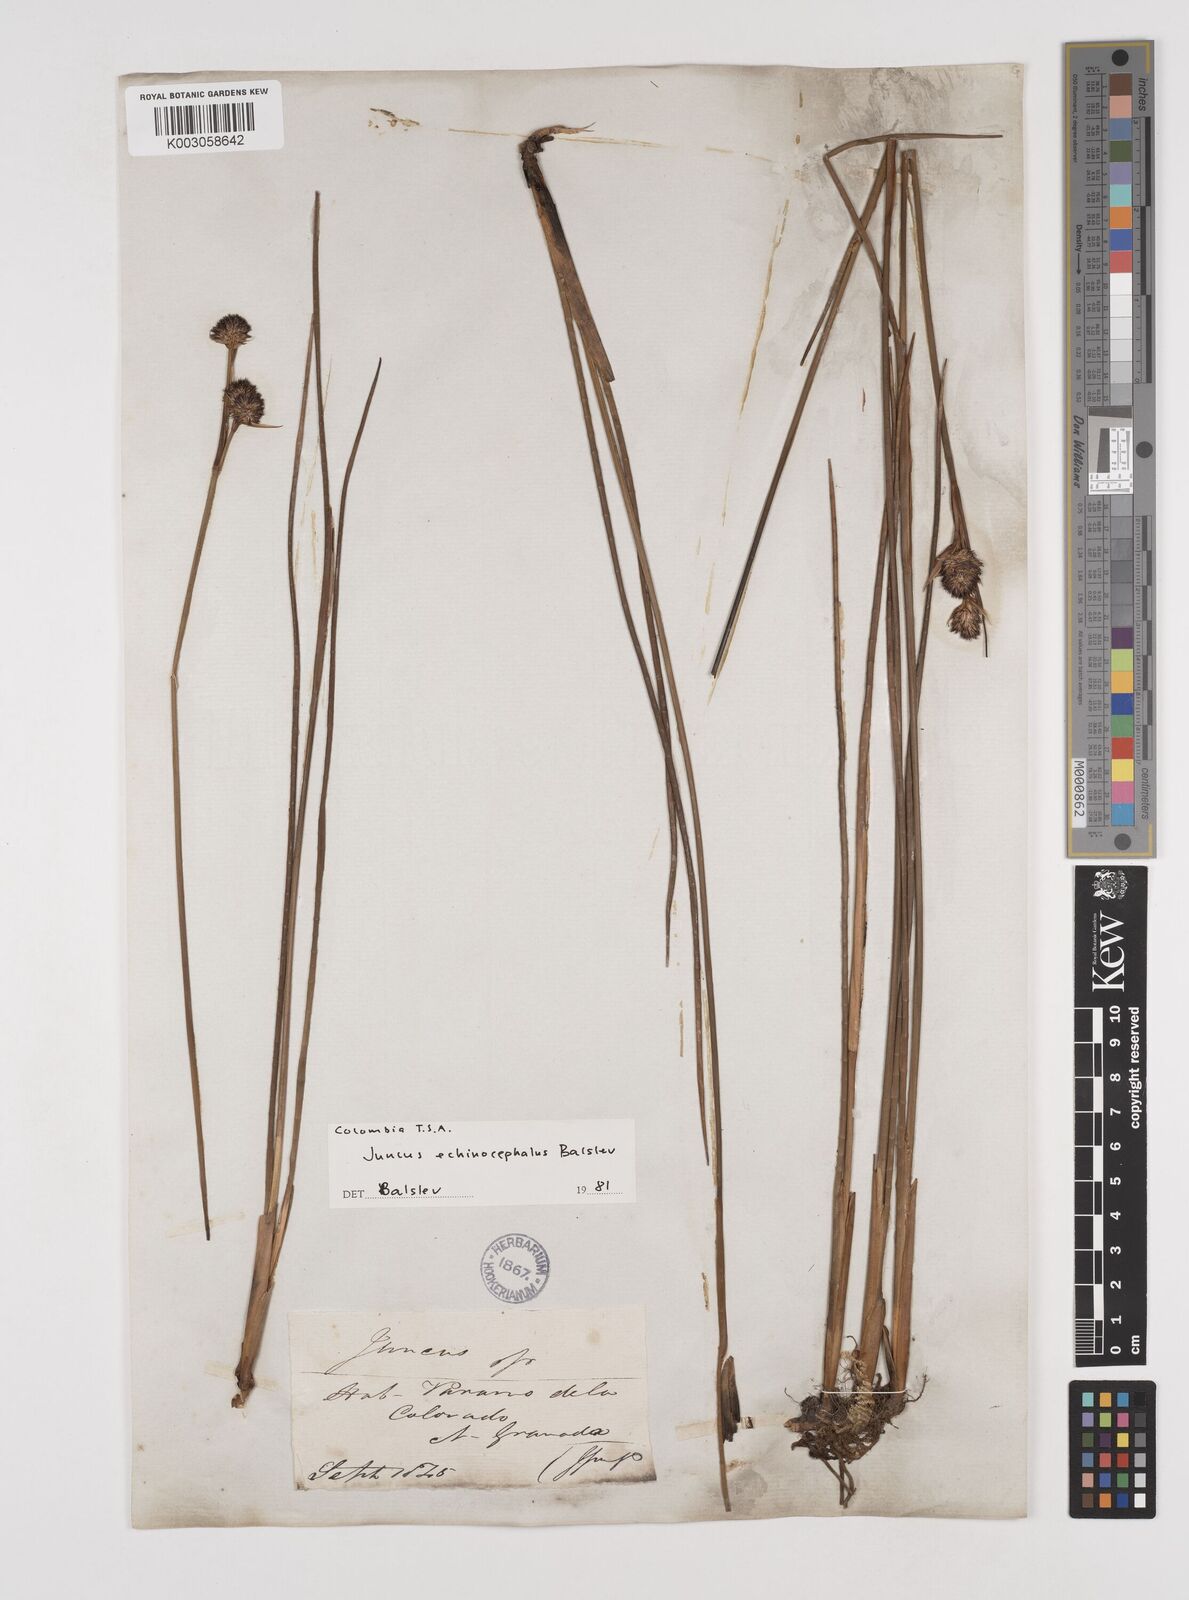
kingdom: Plantae
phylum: Tracheophyta
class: Liliopsida
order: Poales
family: Juncaceae
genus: Juncus
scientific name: Juncus echinocephalus
